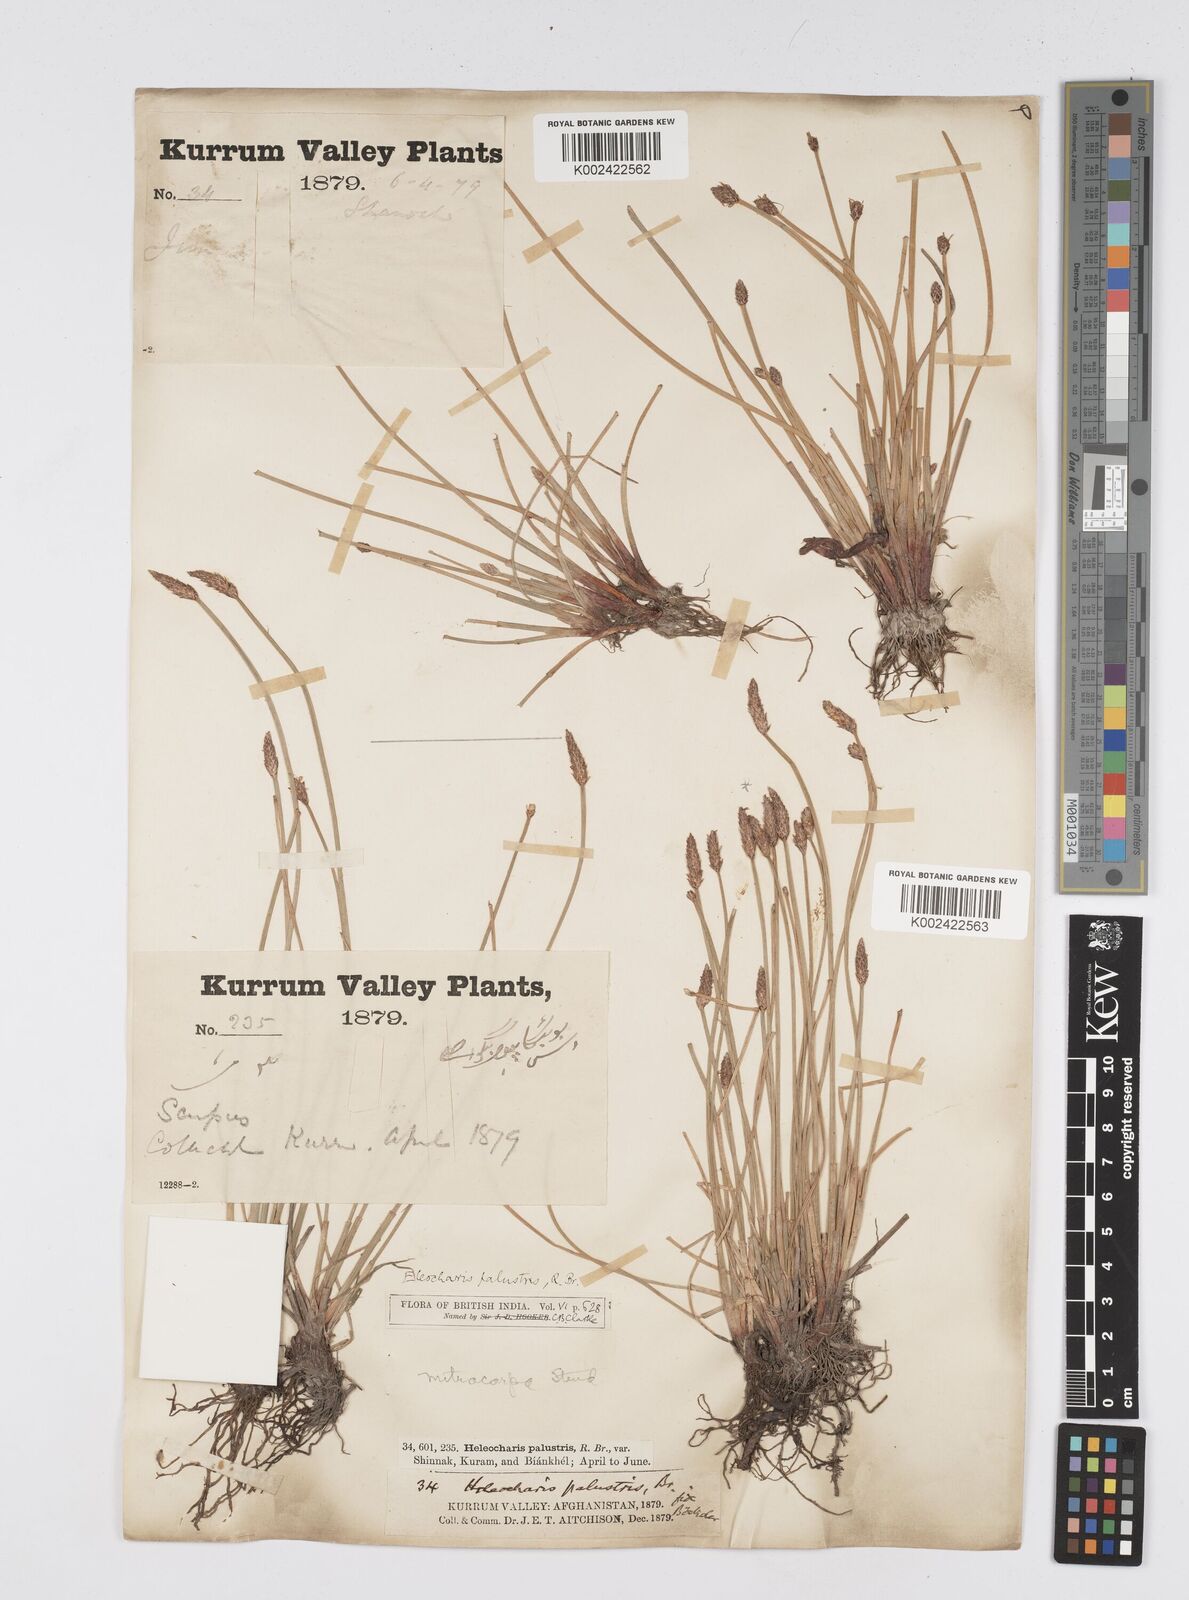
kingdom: Plantae
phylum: Tracheophyta
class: Liliopsida
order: Poales
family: Cyperaceae
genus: Eleocharis
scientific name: Eleocharis mitracarpa
